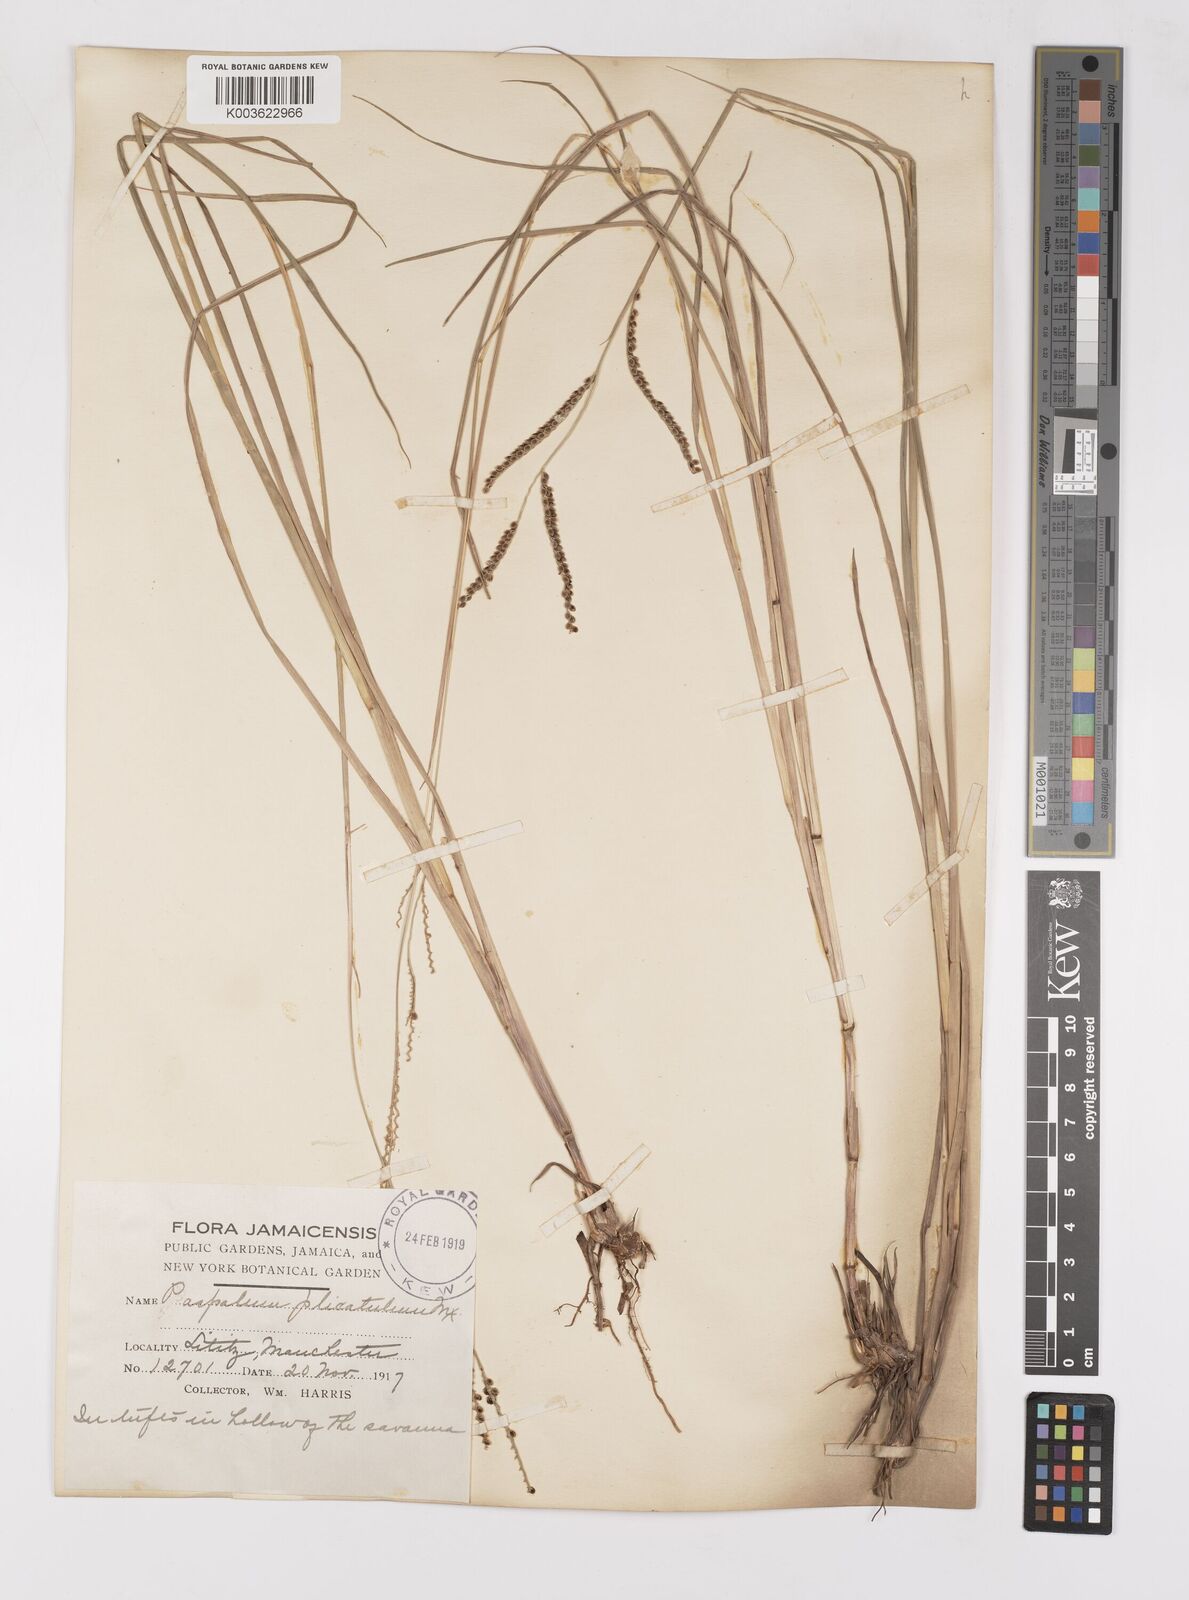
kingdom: Plantae
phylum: Tracheophyta
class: Liliopsida
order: Poales
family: Poaceae
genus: Paspalum
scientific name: Paspalum
